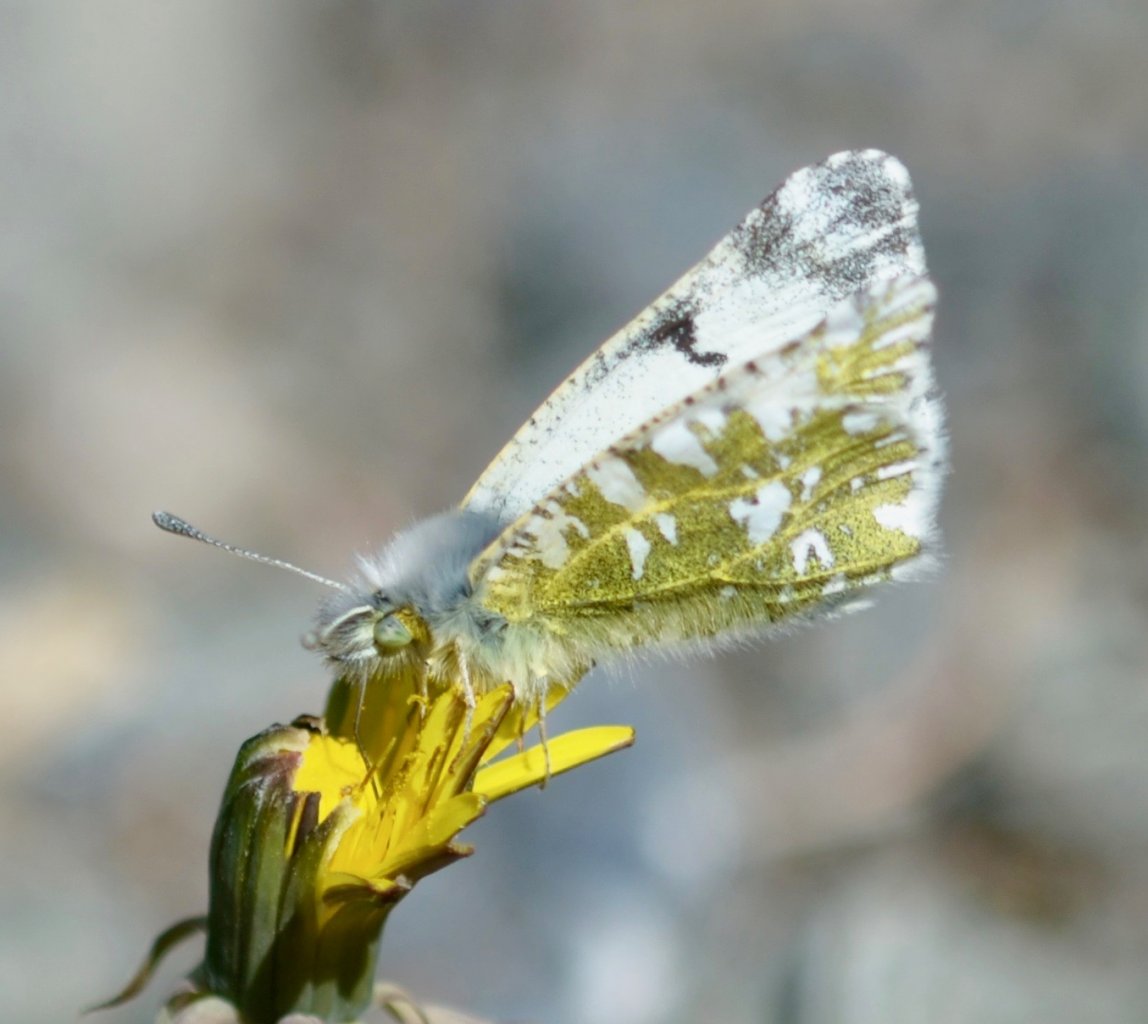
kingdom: Animalia
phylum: Arthropoda
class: Insecta
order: Lepidoptera
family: Pieridae
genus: Euchloe
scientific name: Euchloe creusa
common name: Northern Marble
